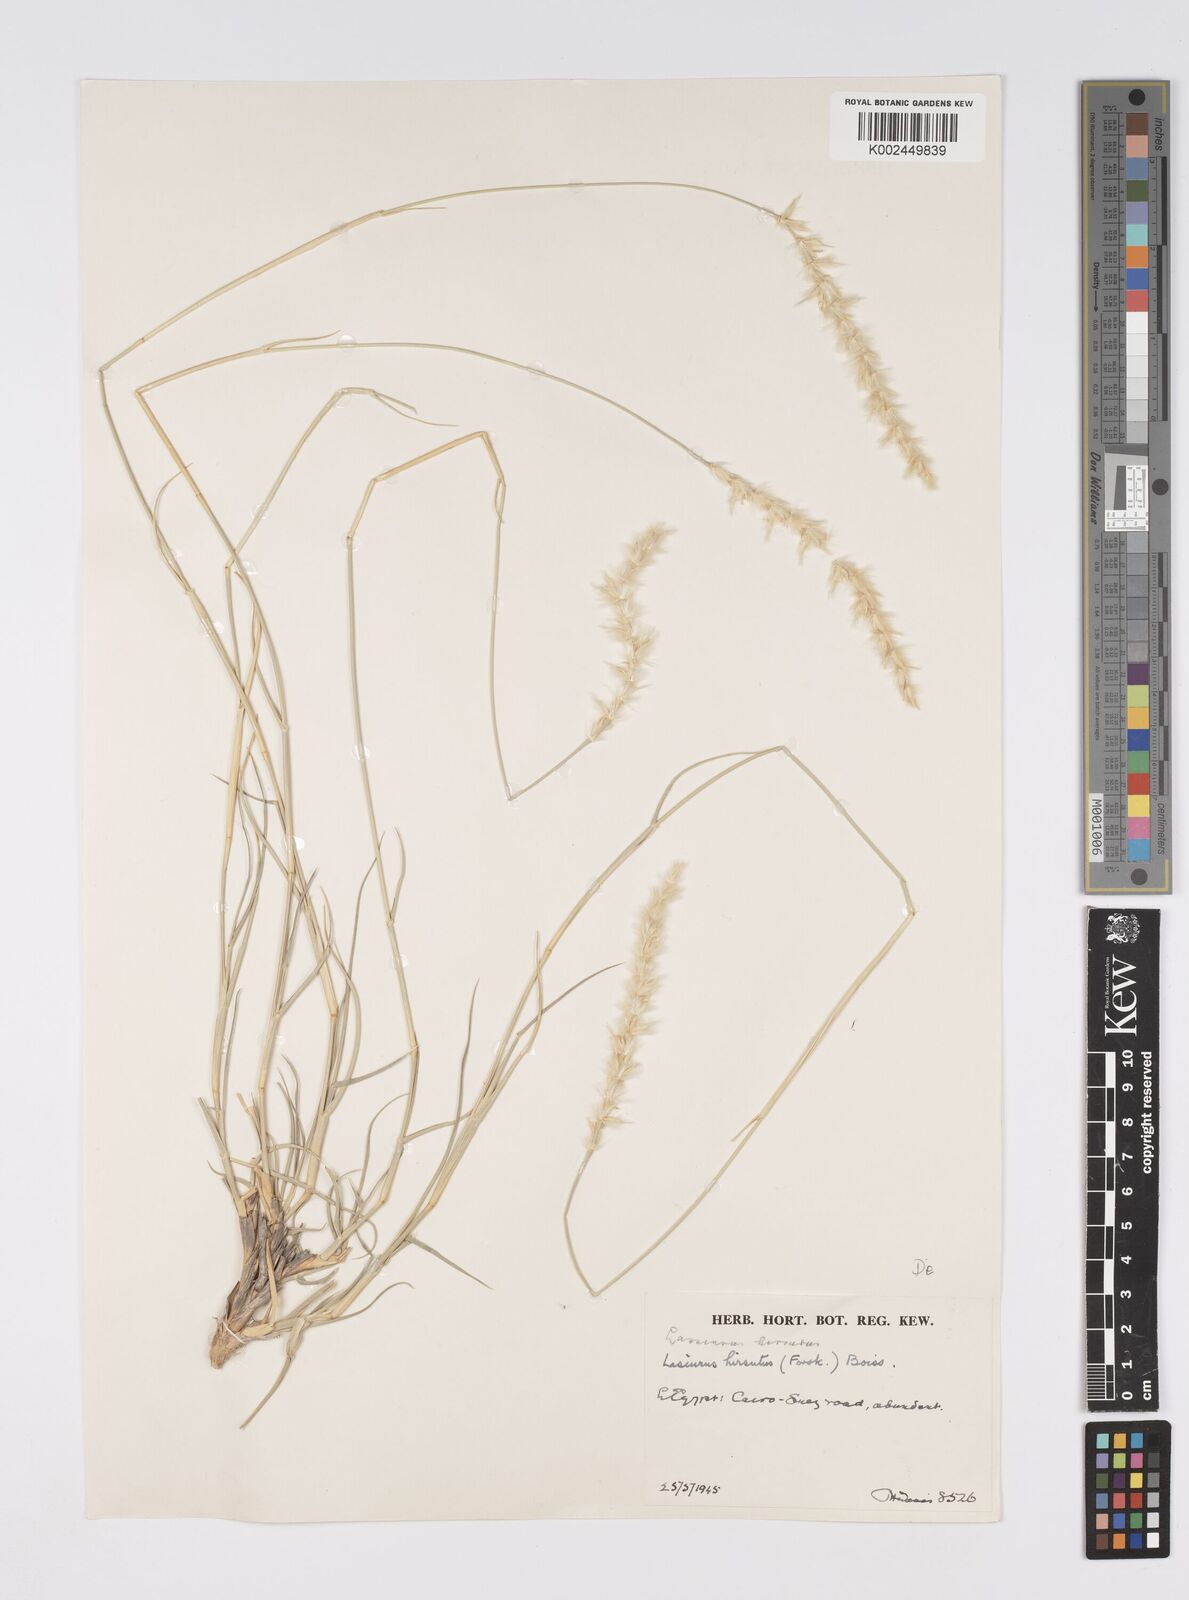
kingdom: Plantae
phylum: Tracheophyta
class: Liliopsida
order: Poales
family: Poaceae
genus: Lasiurus
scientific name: Lasiurus scindicus
